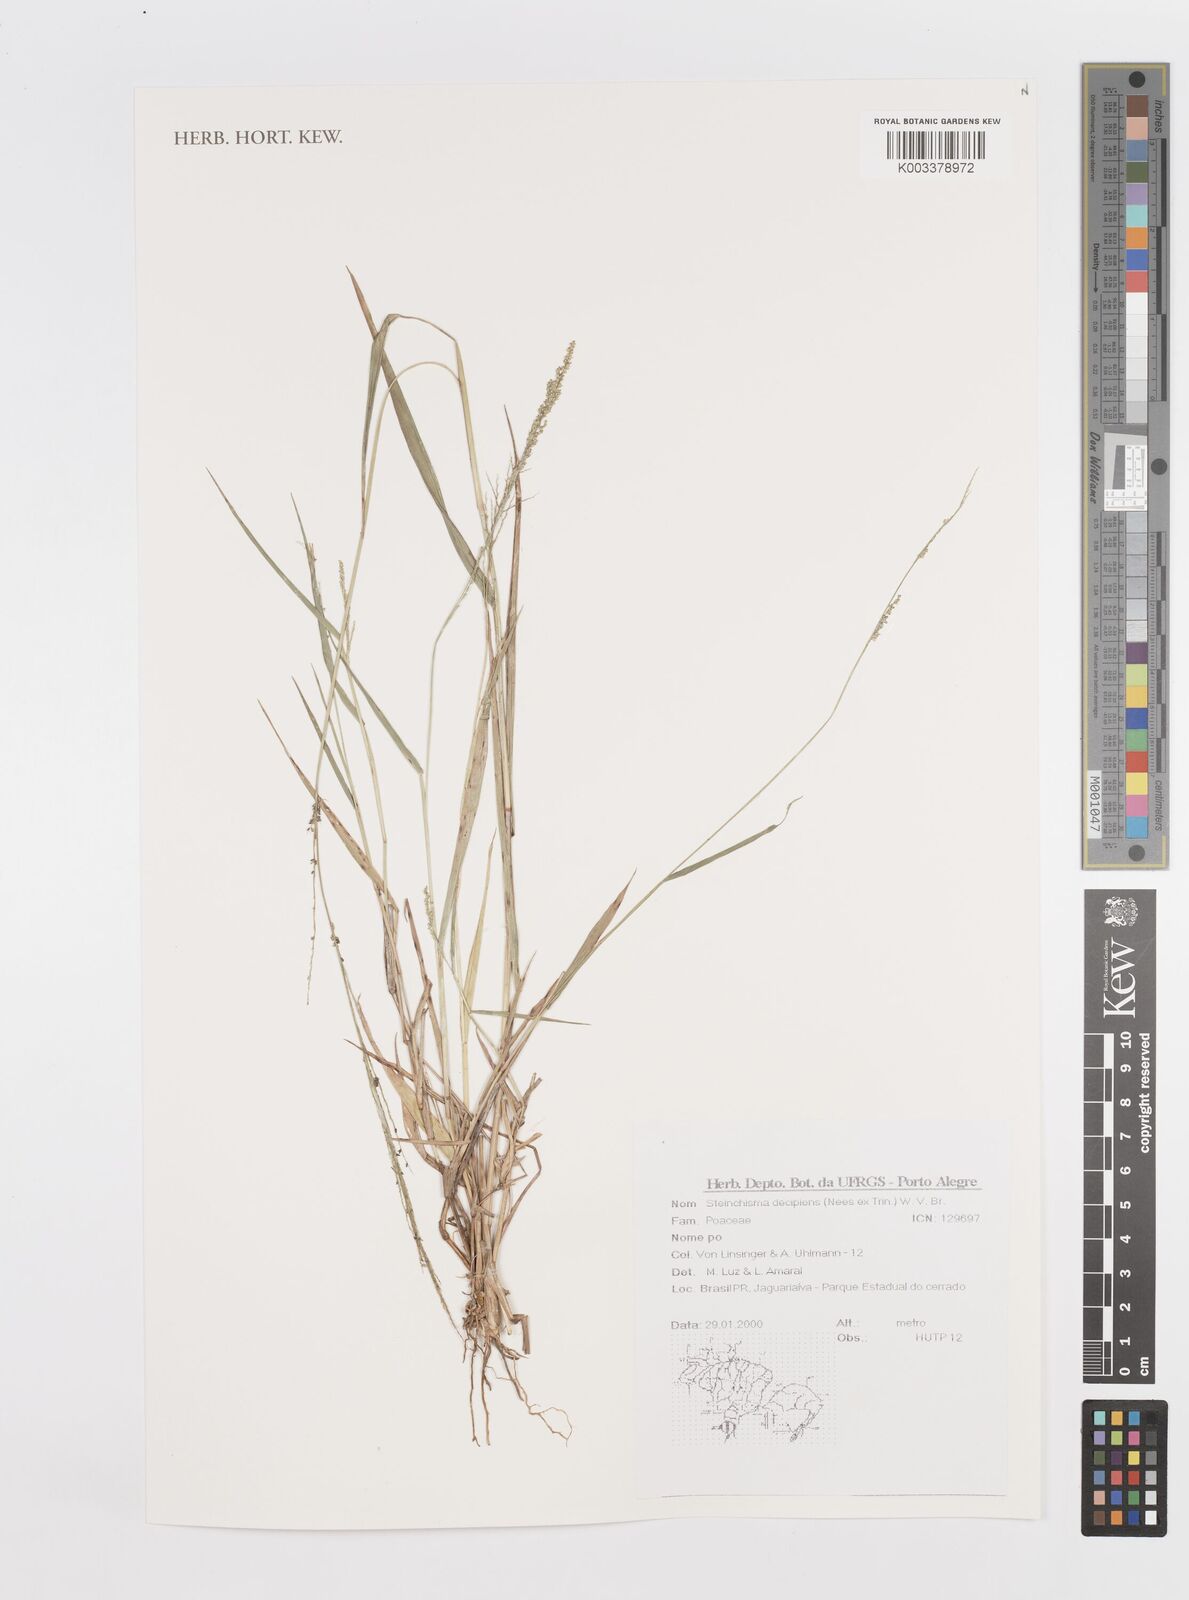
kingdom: Plantae
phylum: Tracheophyta
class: Liliopsida
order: Poales
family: Poaceae
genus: Steinchisma
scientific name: Steinchisma decipiens
